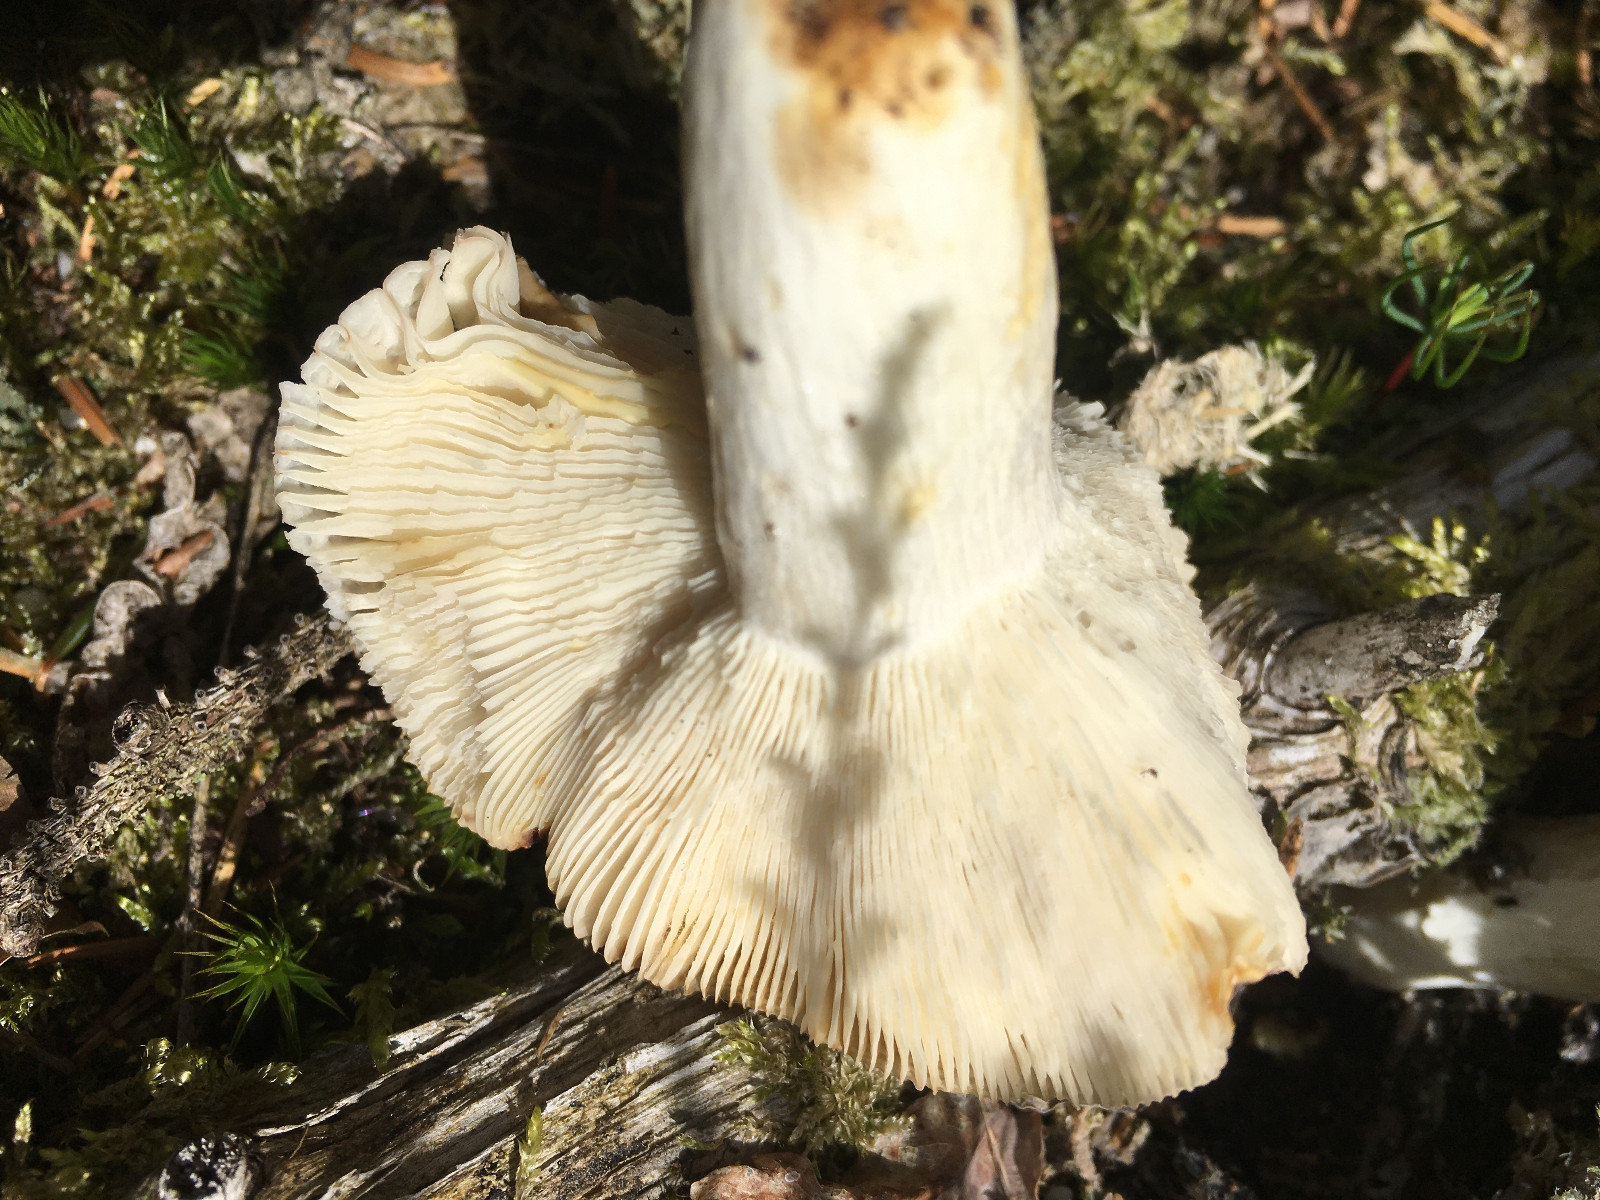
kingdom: Fungi
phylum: Basidiomycota
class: Agaricomycetes
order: Russulales
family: Russulaceae
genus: Russula
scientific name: Russula
